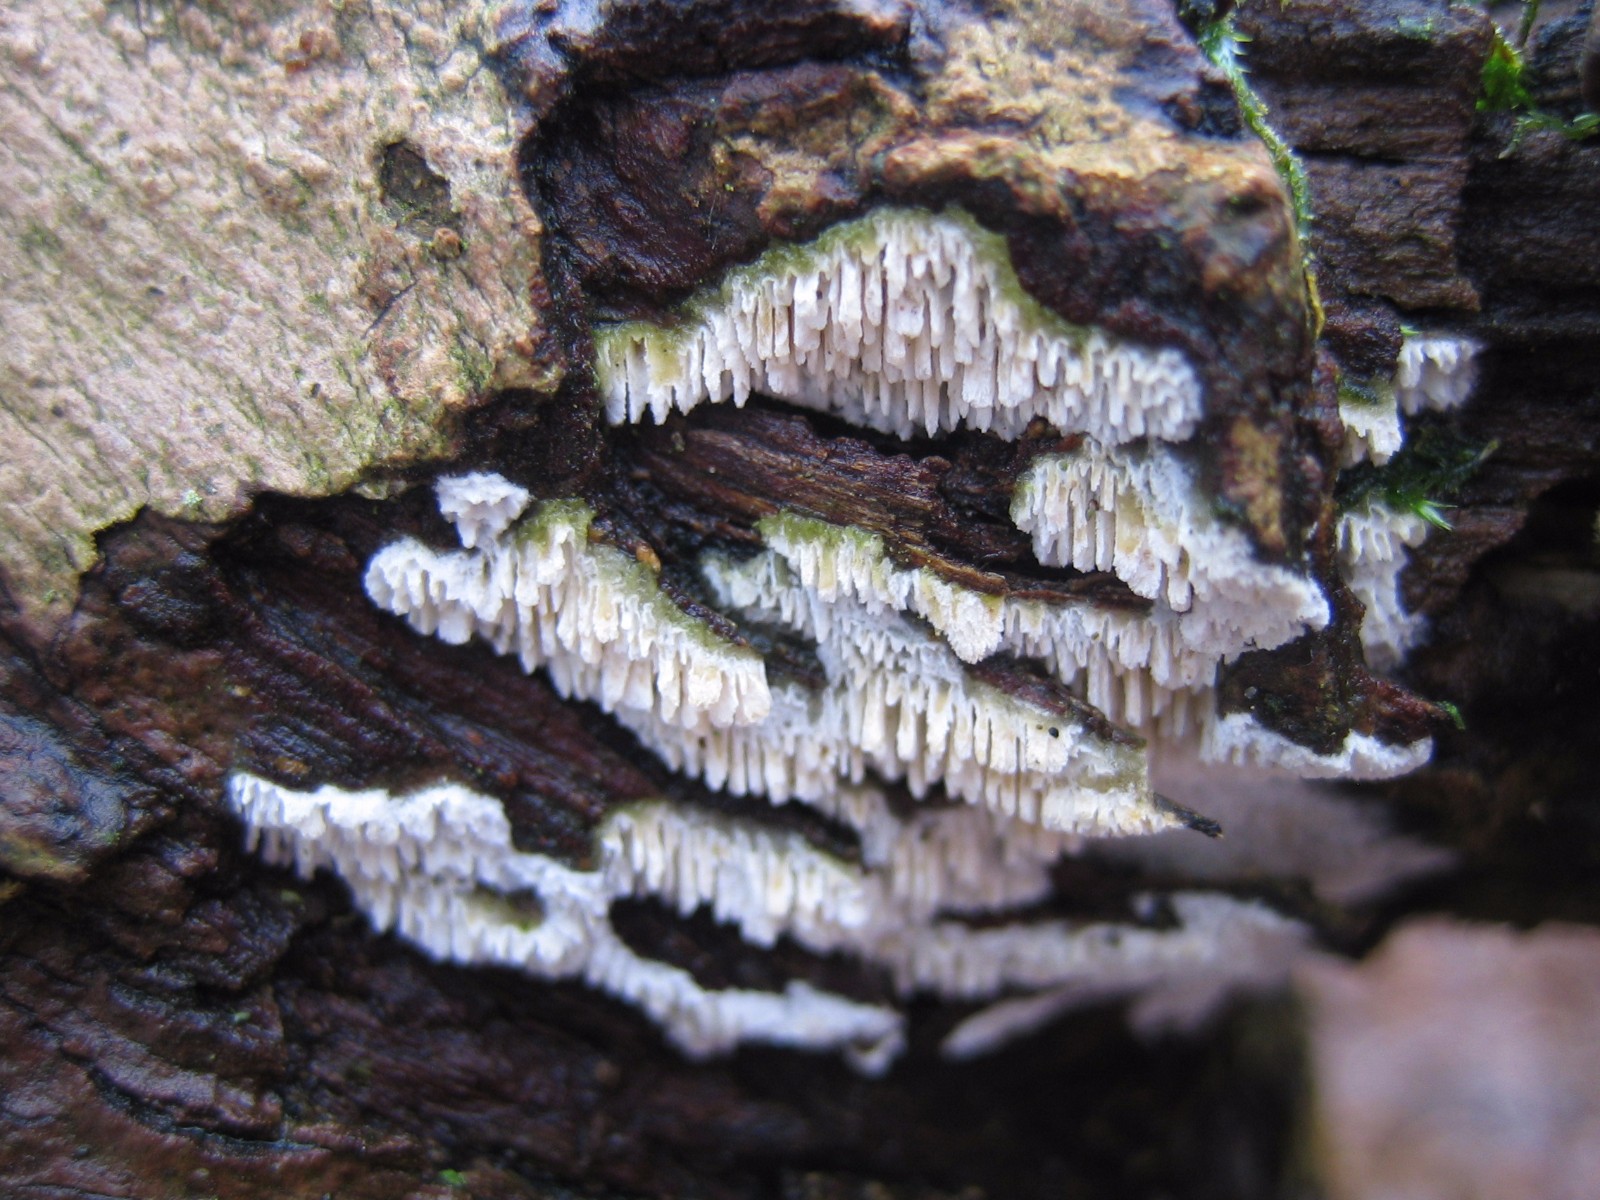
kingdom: Fungi
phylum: Basidiomycota
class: Agaricomycetes
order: Corticiales
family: Corticiaceae
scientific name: Corticiaceae
